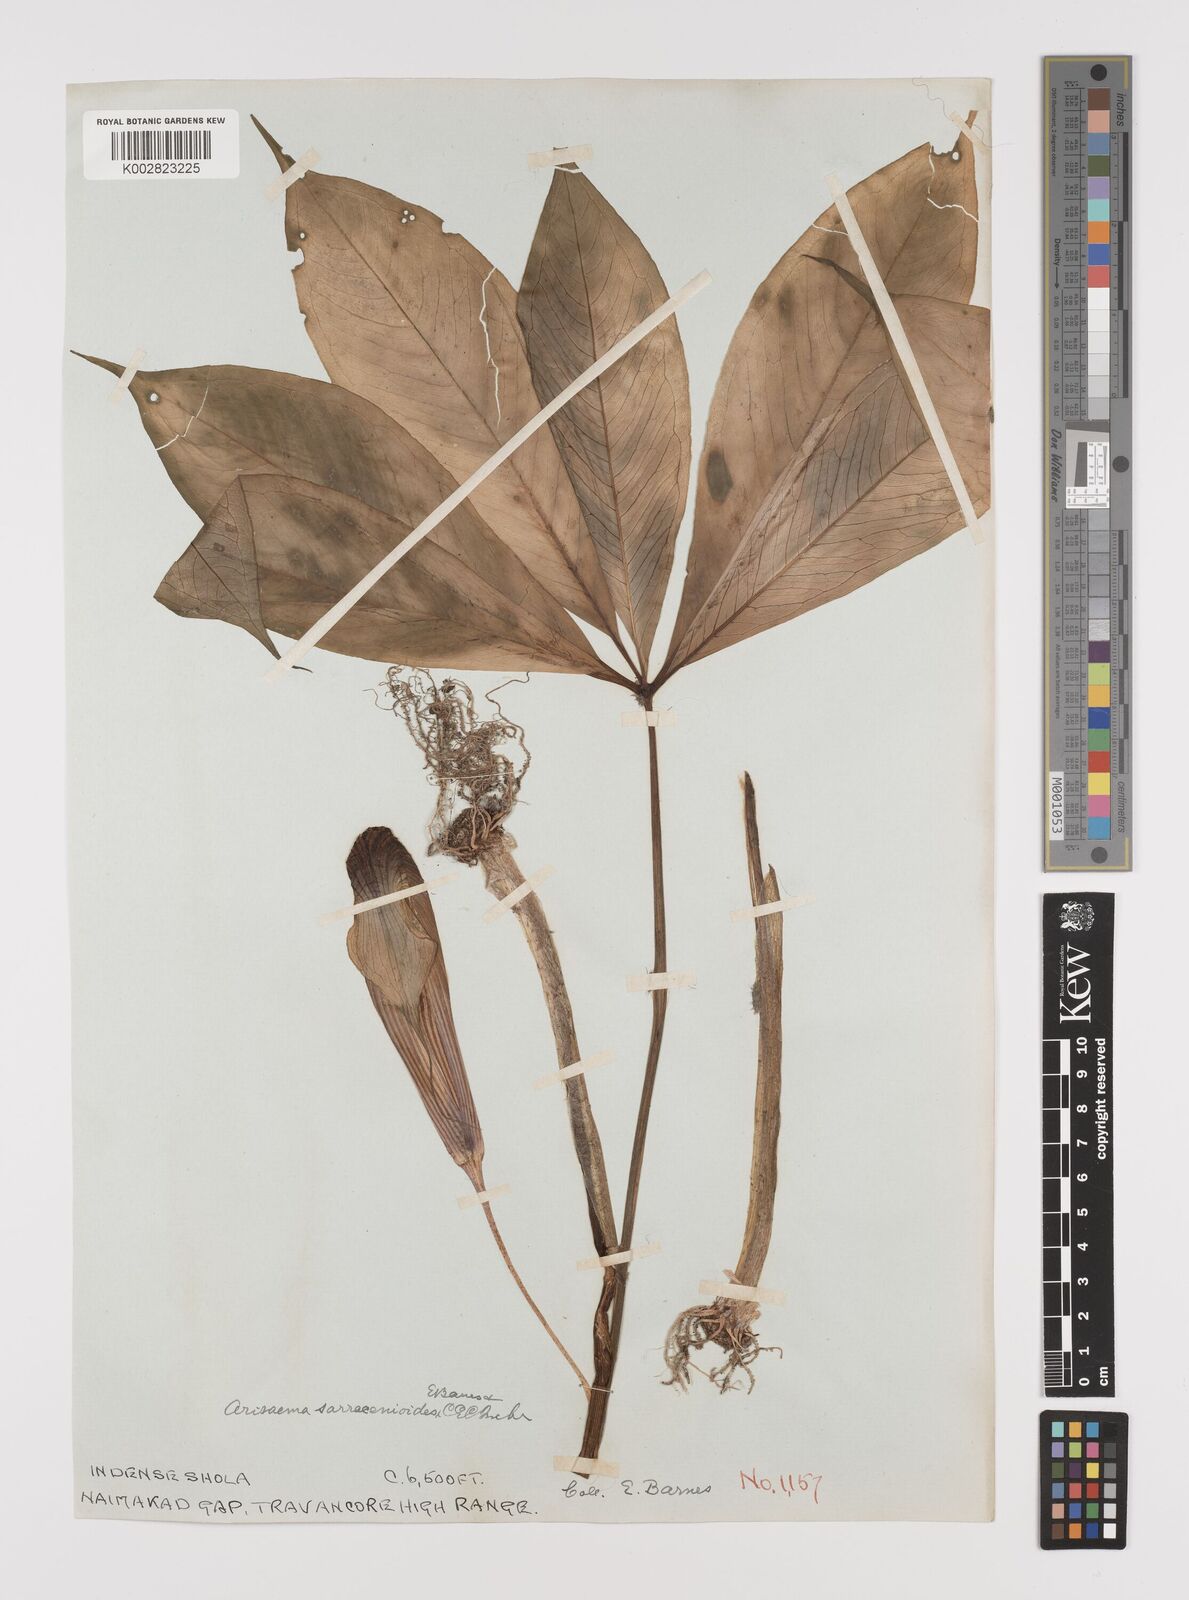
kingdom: Plantae
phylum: Tracheophyta
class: Liliopsida
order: Alismatales
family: Araceae
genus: Arisaema
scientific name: Arisaema sarracenioides
